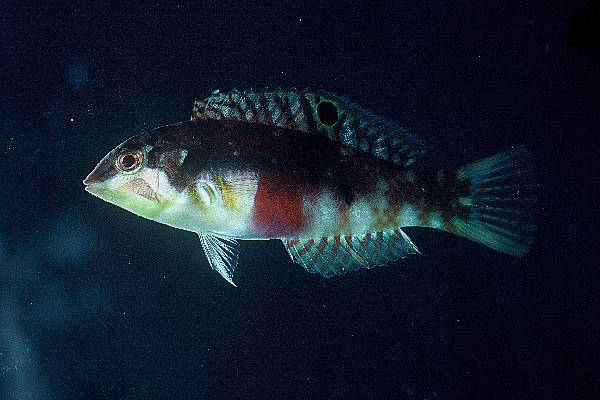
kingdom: Animalia
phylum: Chordata
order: Perciformes
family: Labridae
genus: Halichoeres
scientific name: Halichoeres nebulosus
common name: Clouded wrasse
